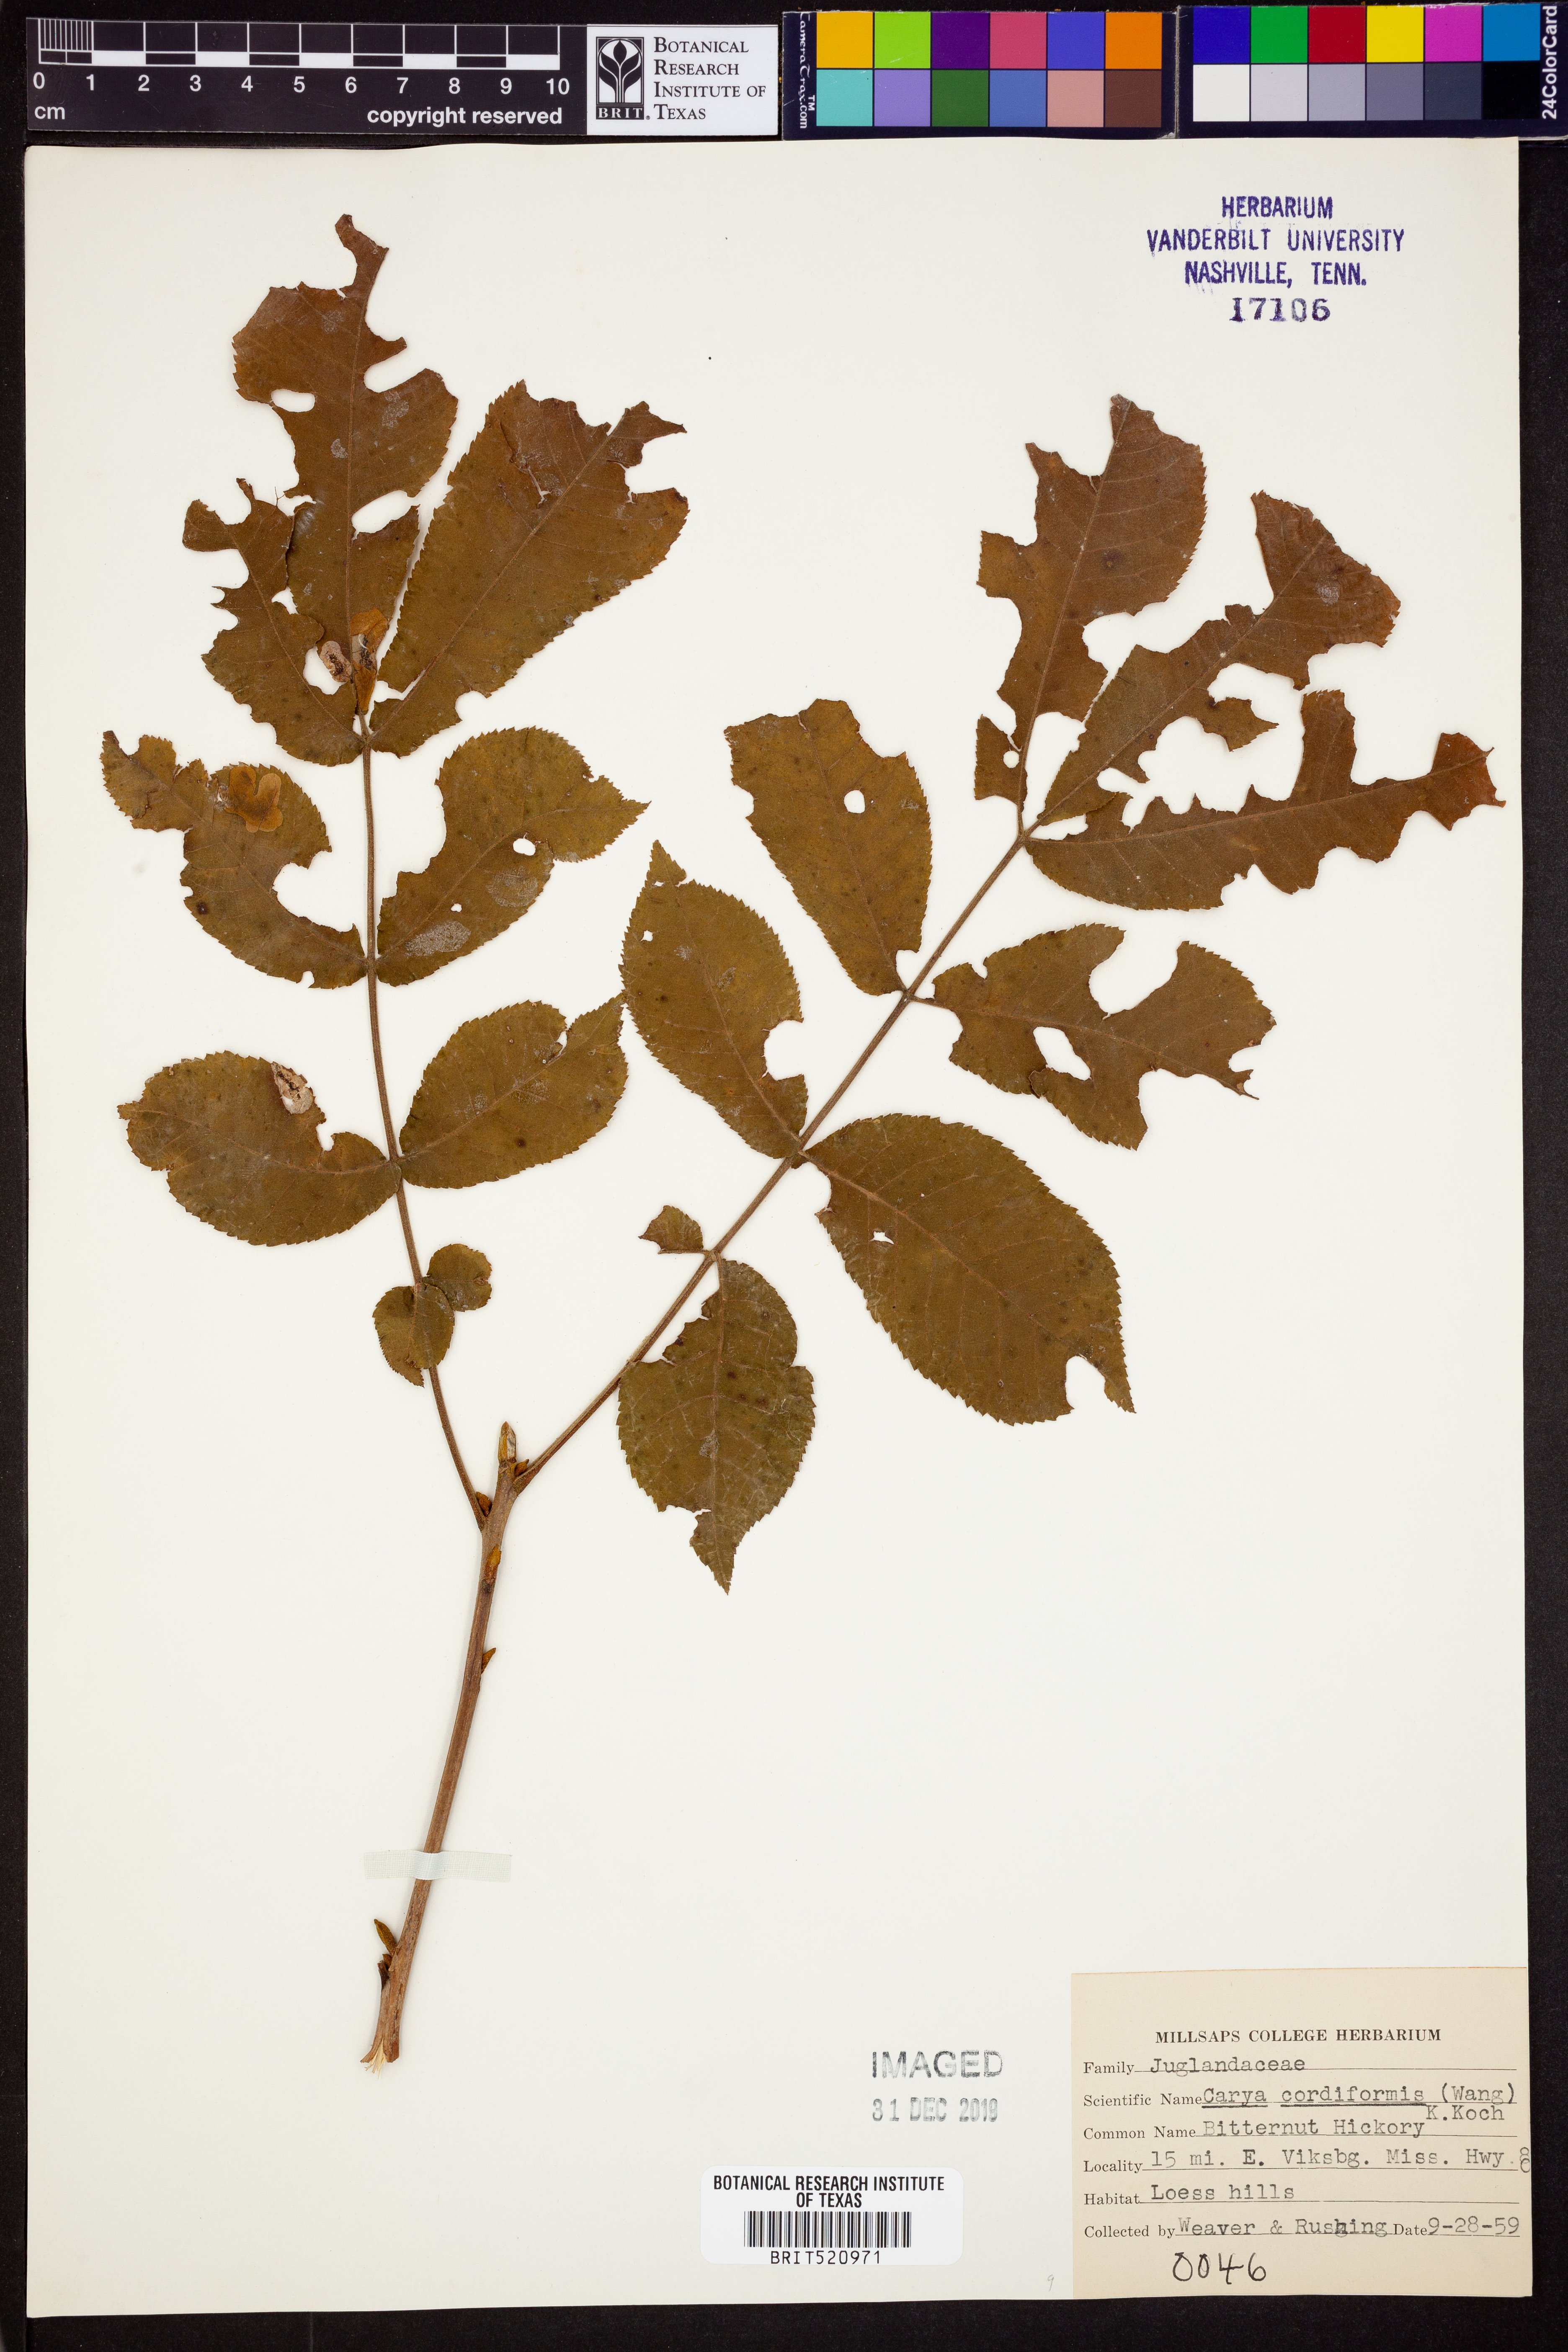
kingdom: Plantae
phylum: Tracheophyta
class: Magnoliopsida
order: Fagales
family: Juglandaceae
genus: Carya
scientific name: Carya cordiformis
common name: Bitternut hickory
